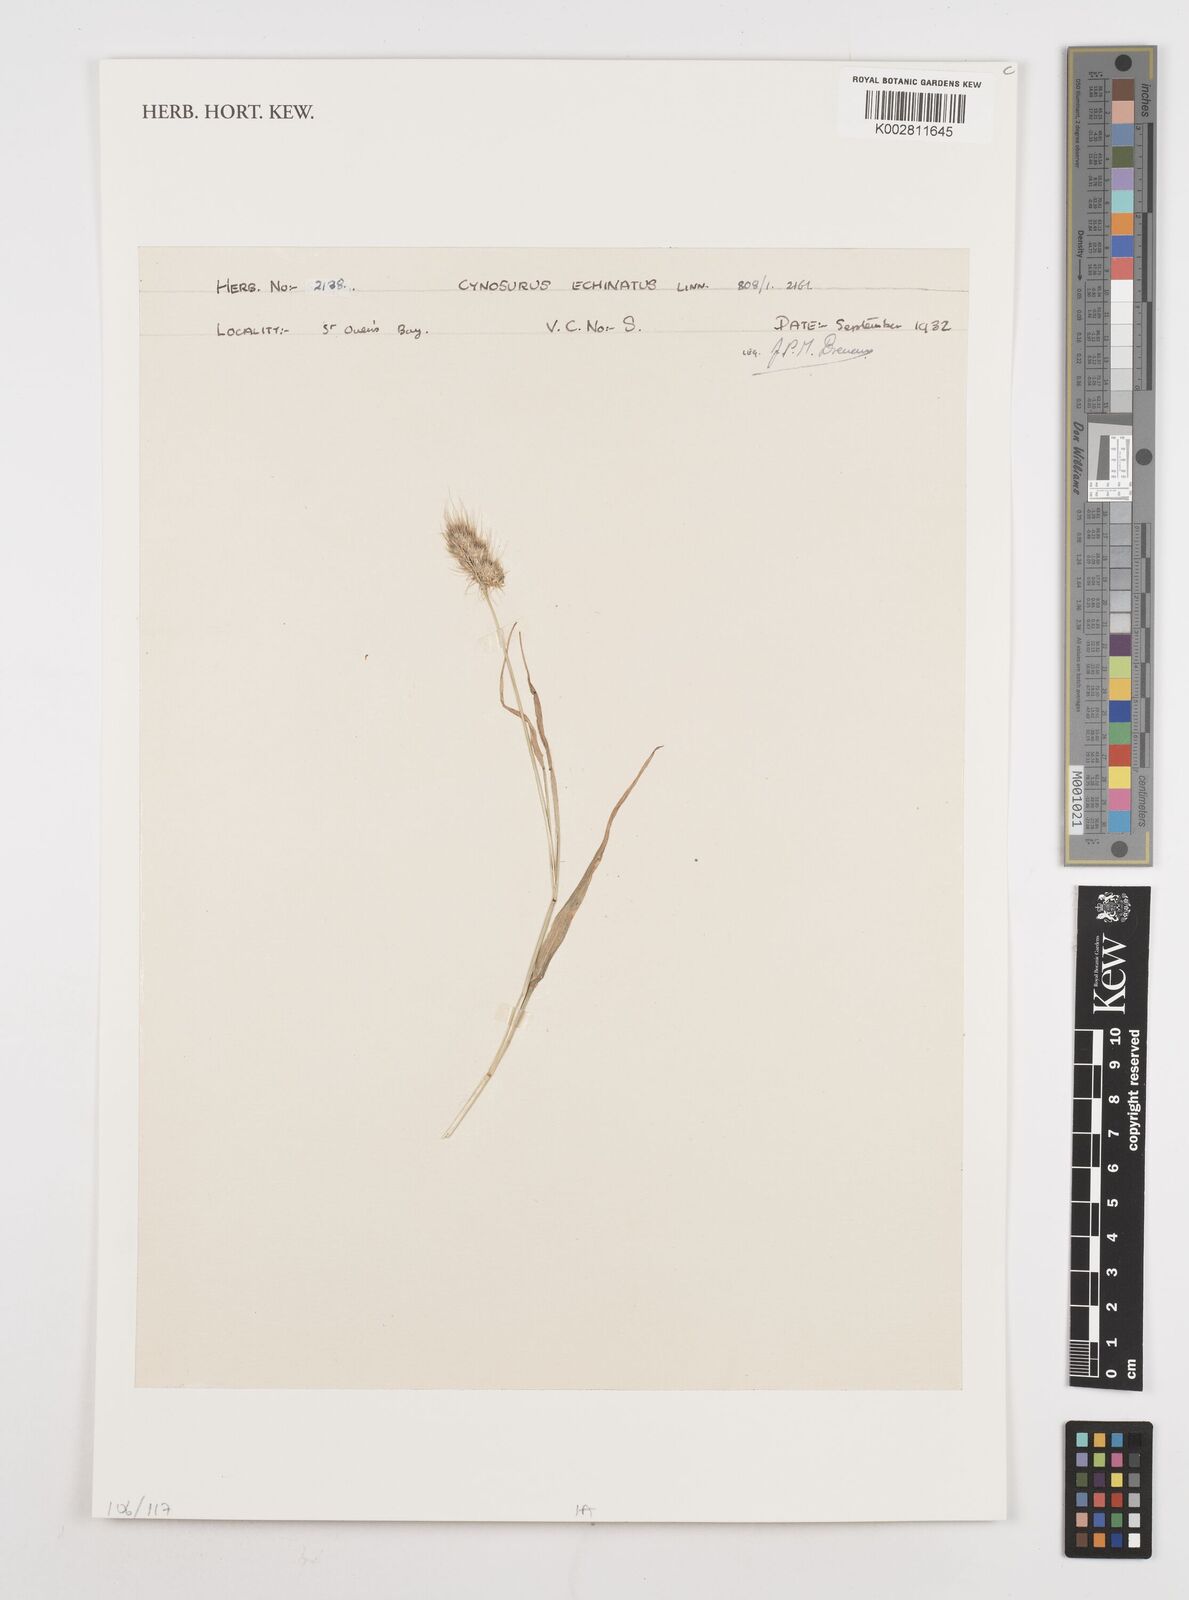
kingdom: Plantae
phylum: Tracheophyta
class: Liliopsida
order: Poales
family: Poaceae
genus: Cynosurus
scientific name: Cynosurus echinatus
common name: Rough dog's-tail
